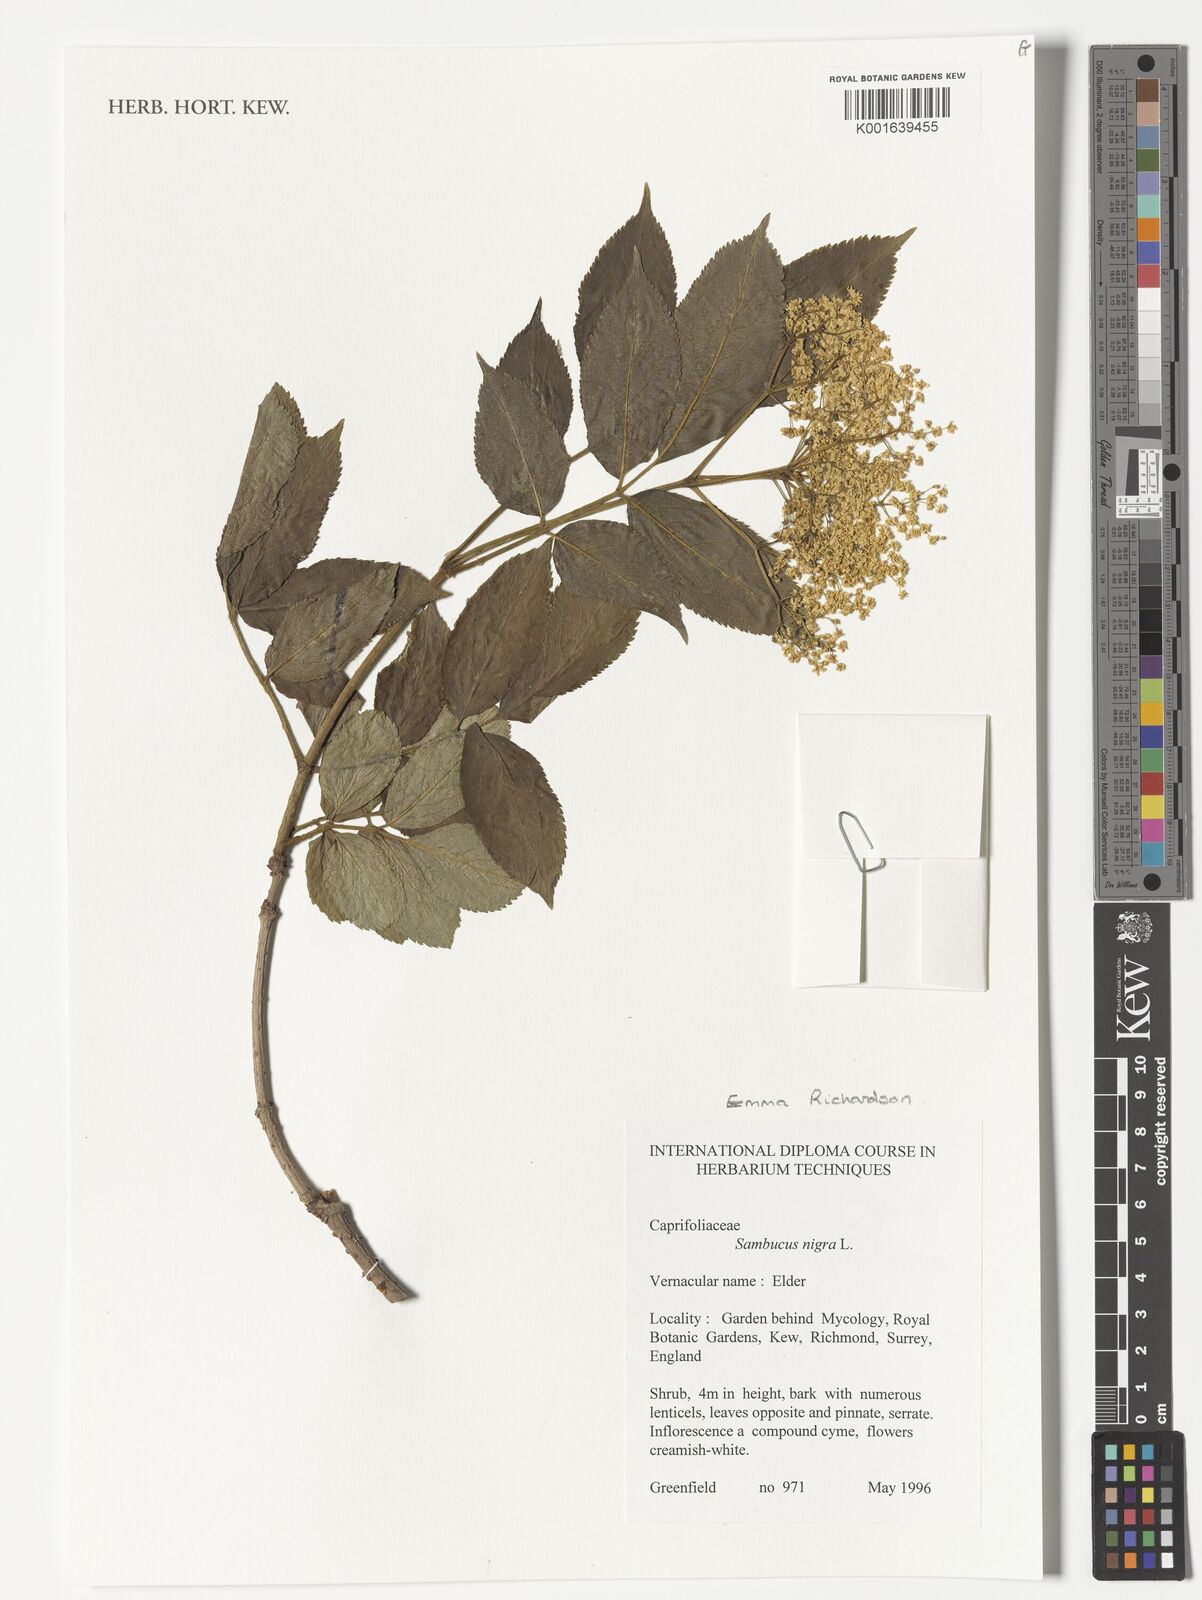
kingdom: Plantae
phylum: Tracheophyta
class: Magnoliopsida
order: Dipsacales
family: Viburnaceae
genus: Sambucus
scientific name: Sambucus nigra
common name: Elder
